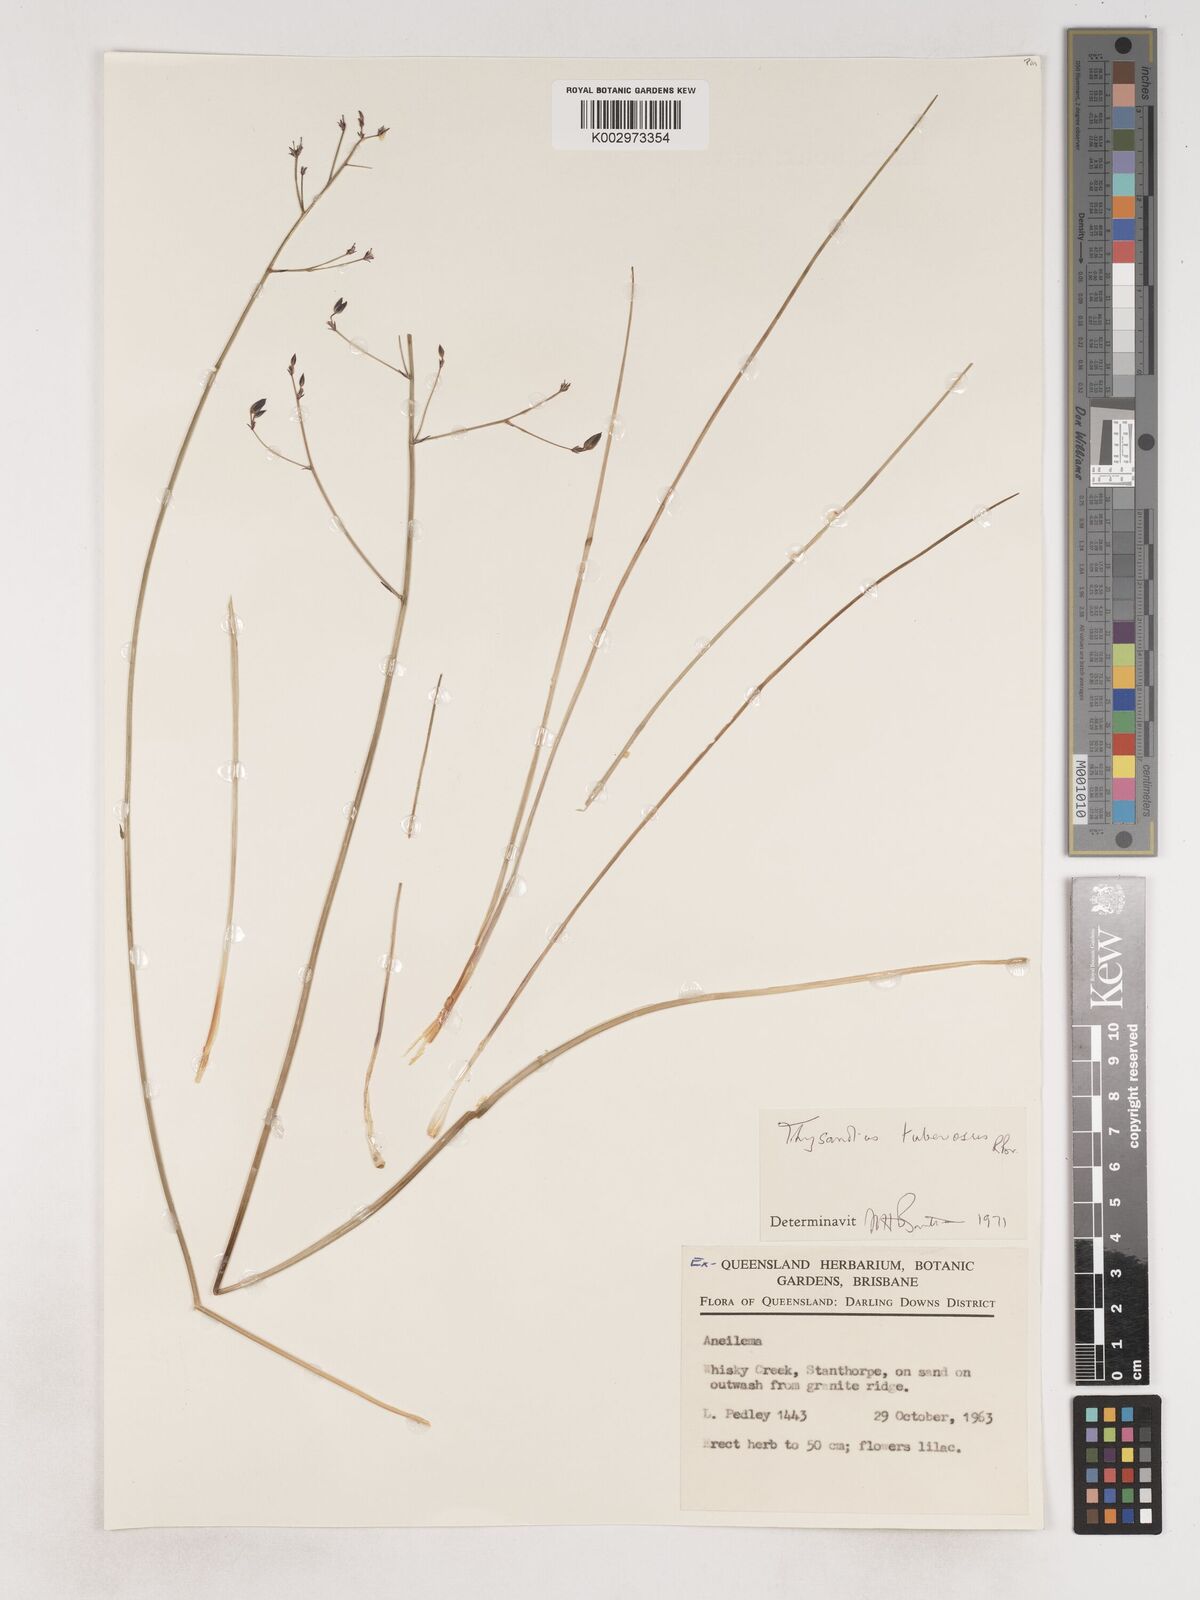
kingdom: Plantae
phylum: Tracheophyta
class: Liliopsida
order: Asparagales
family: Asparagaceae
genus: Thysanotus
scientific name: Thysanotus tuberosus
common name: Common fringed-lily
